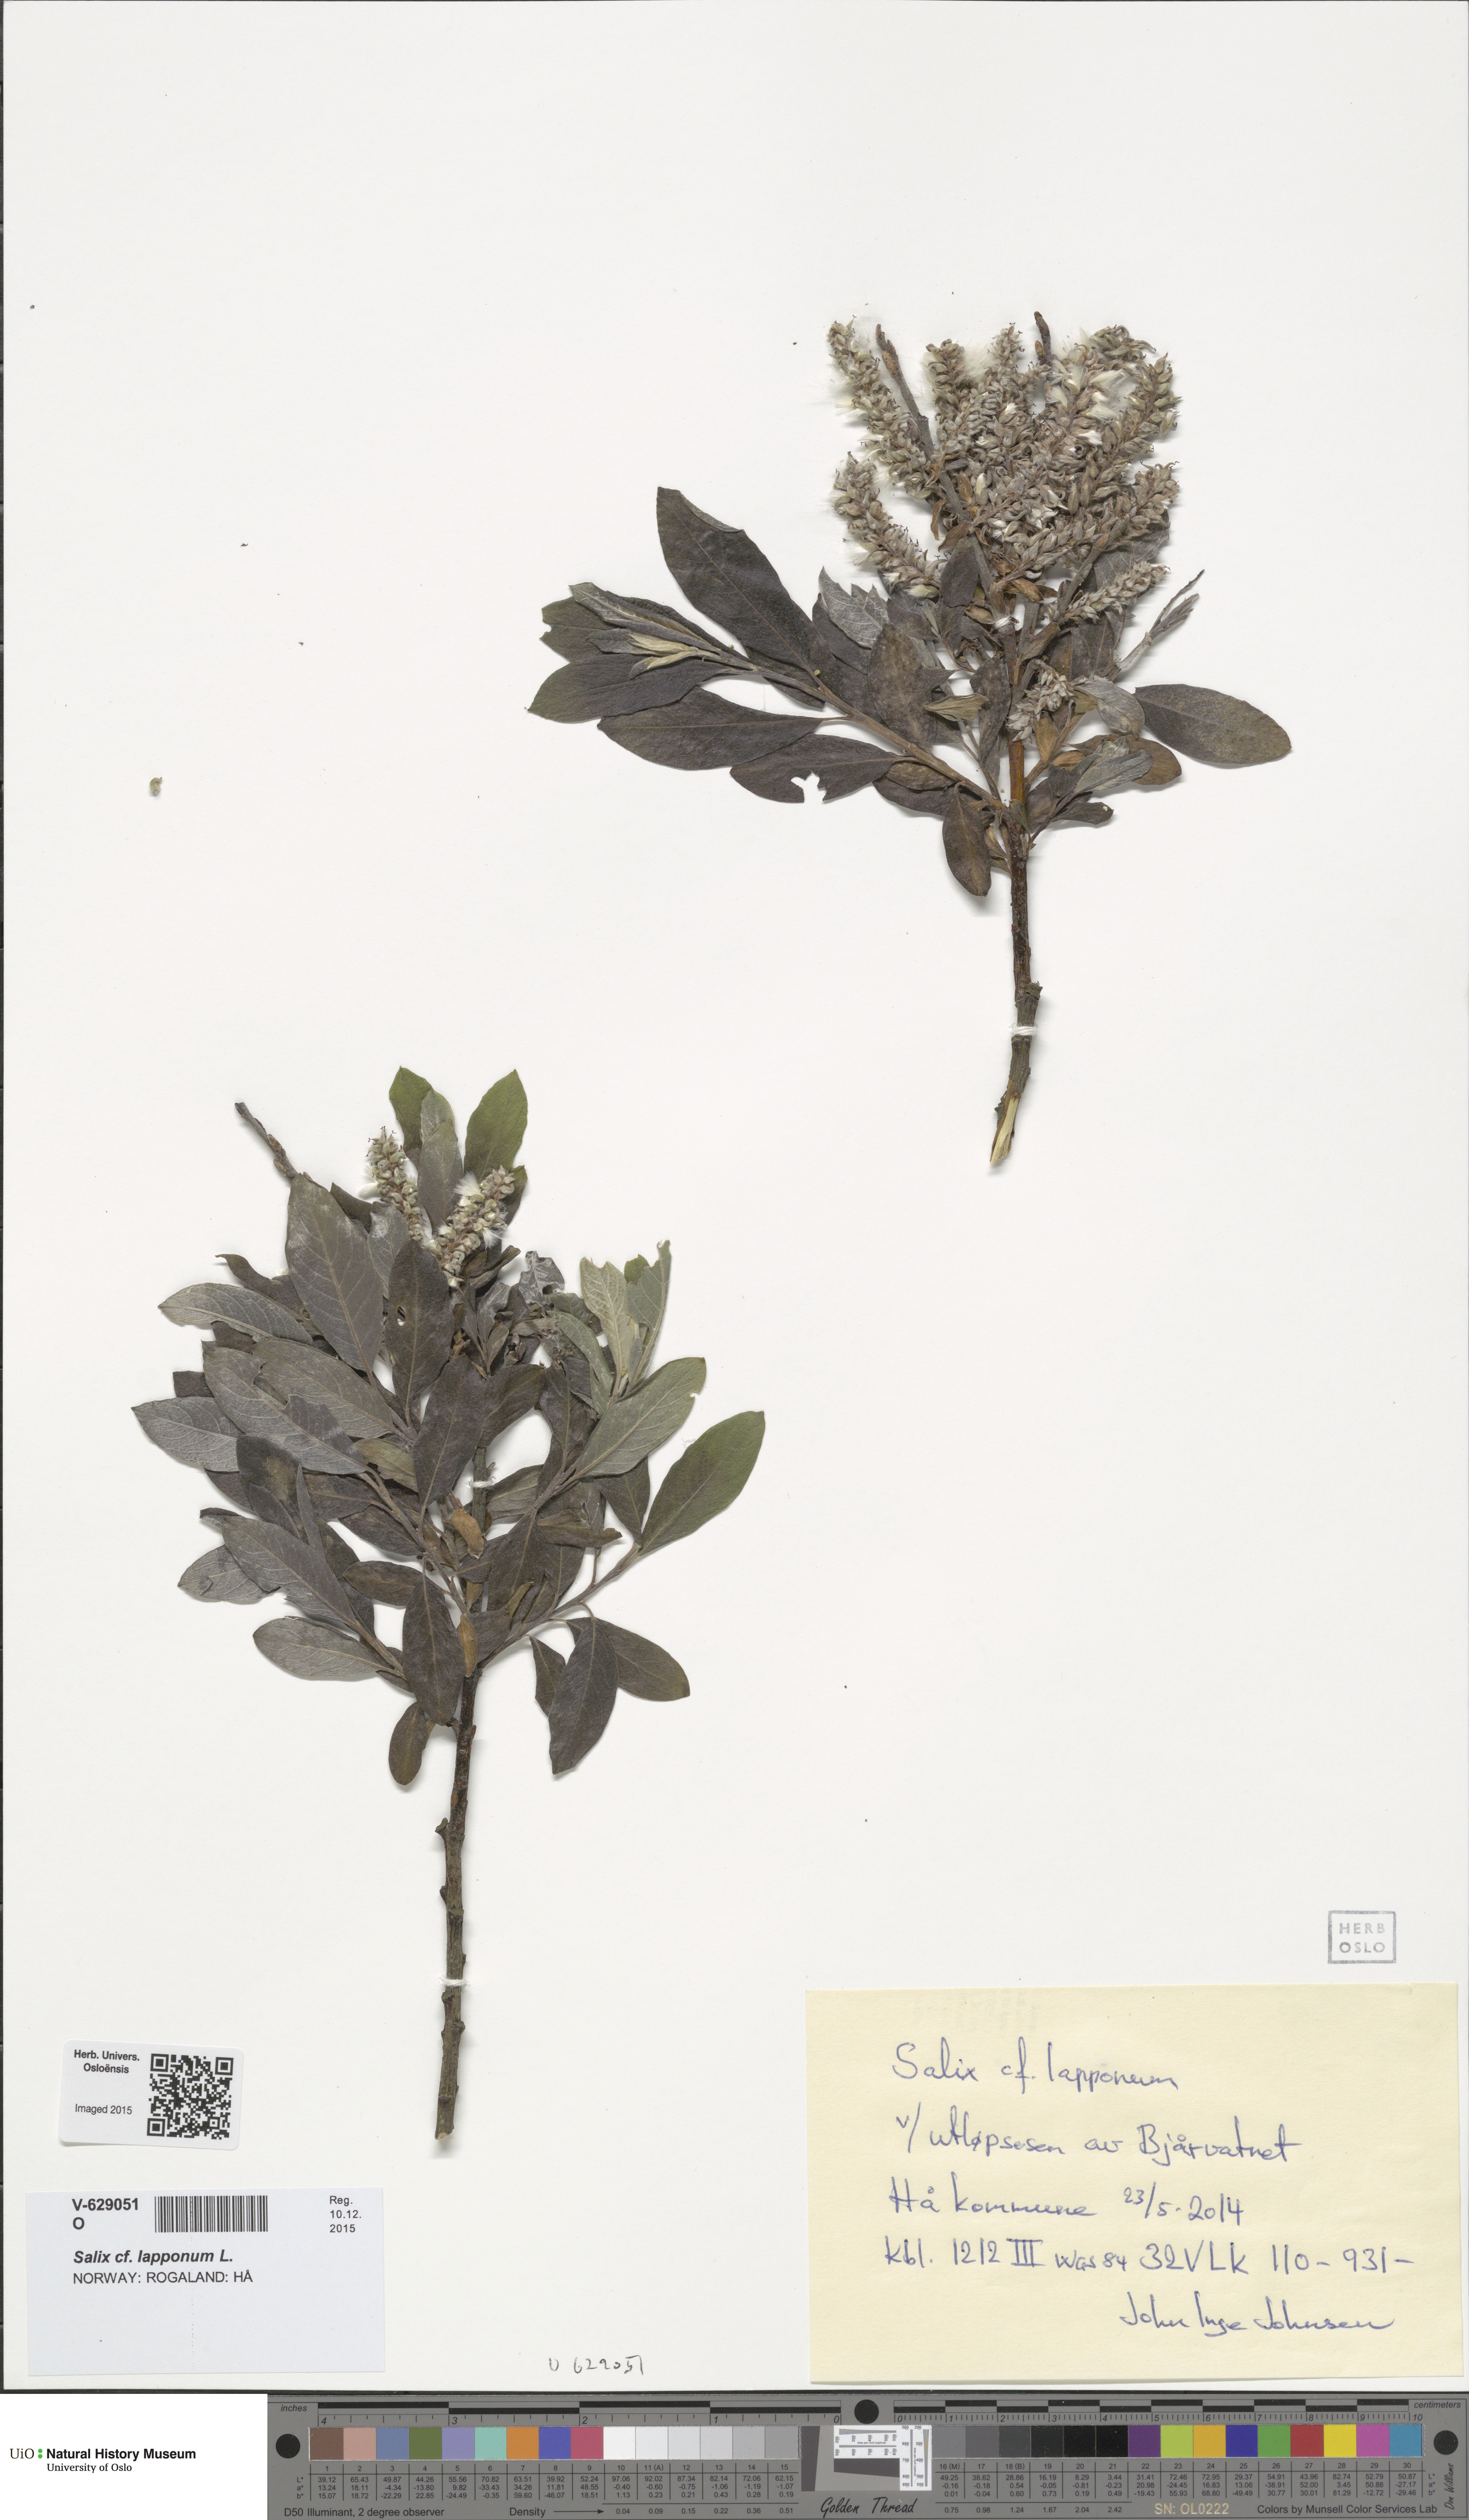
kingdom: Plantae
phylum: Tracheophyta
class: Magnoliopsida
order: Malpighiales
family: Salicaceae
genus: Salix
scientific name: Salix lapponum
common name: Downy willow
